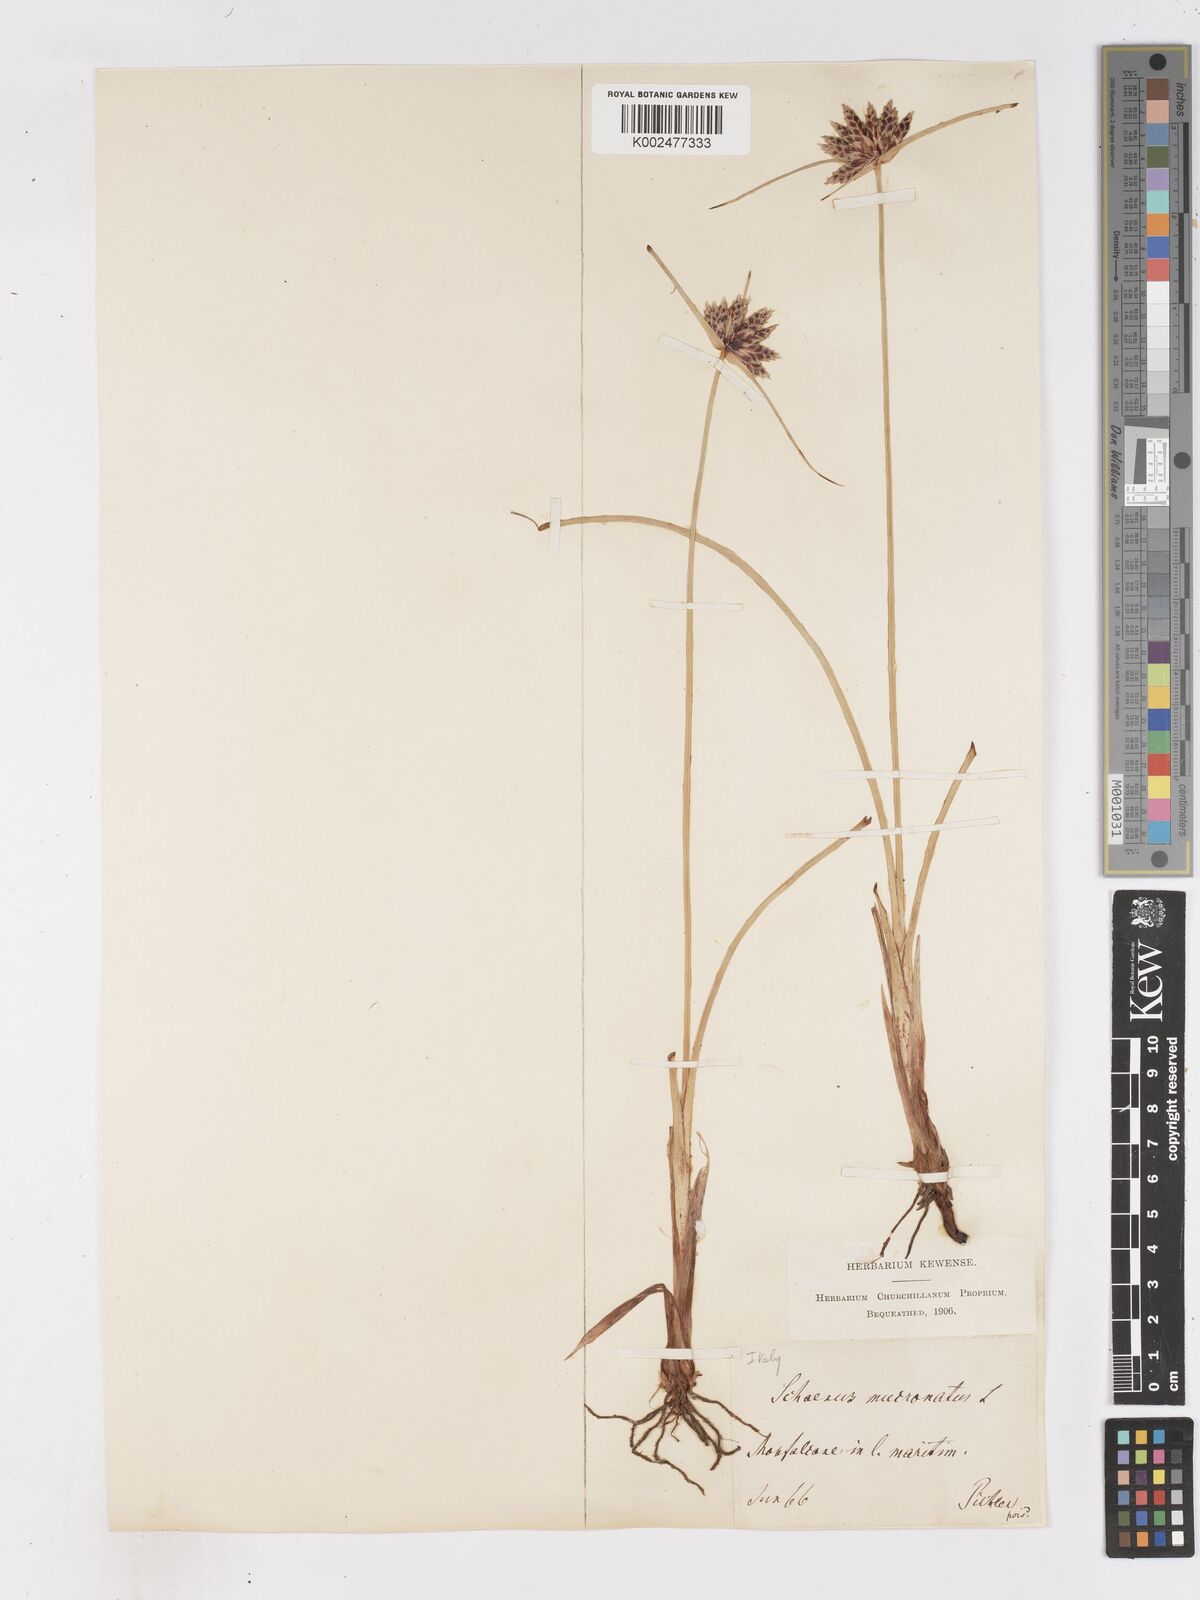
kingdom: Plantae
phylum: Tracheophyta
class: Liliopsida
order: Poales
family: Cyperaceae
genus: Cyperus
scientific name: Cyperus capitatus
